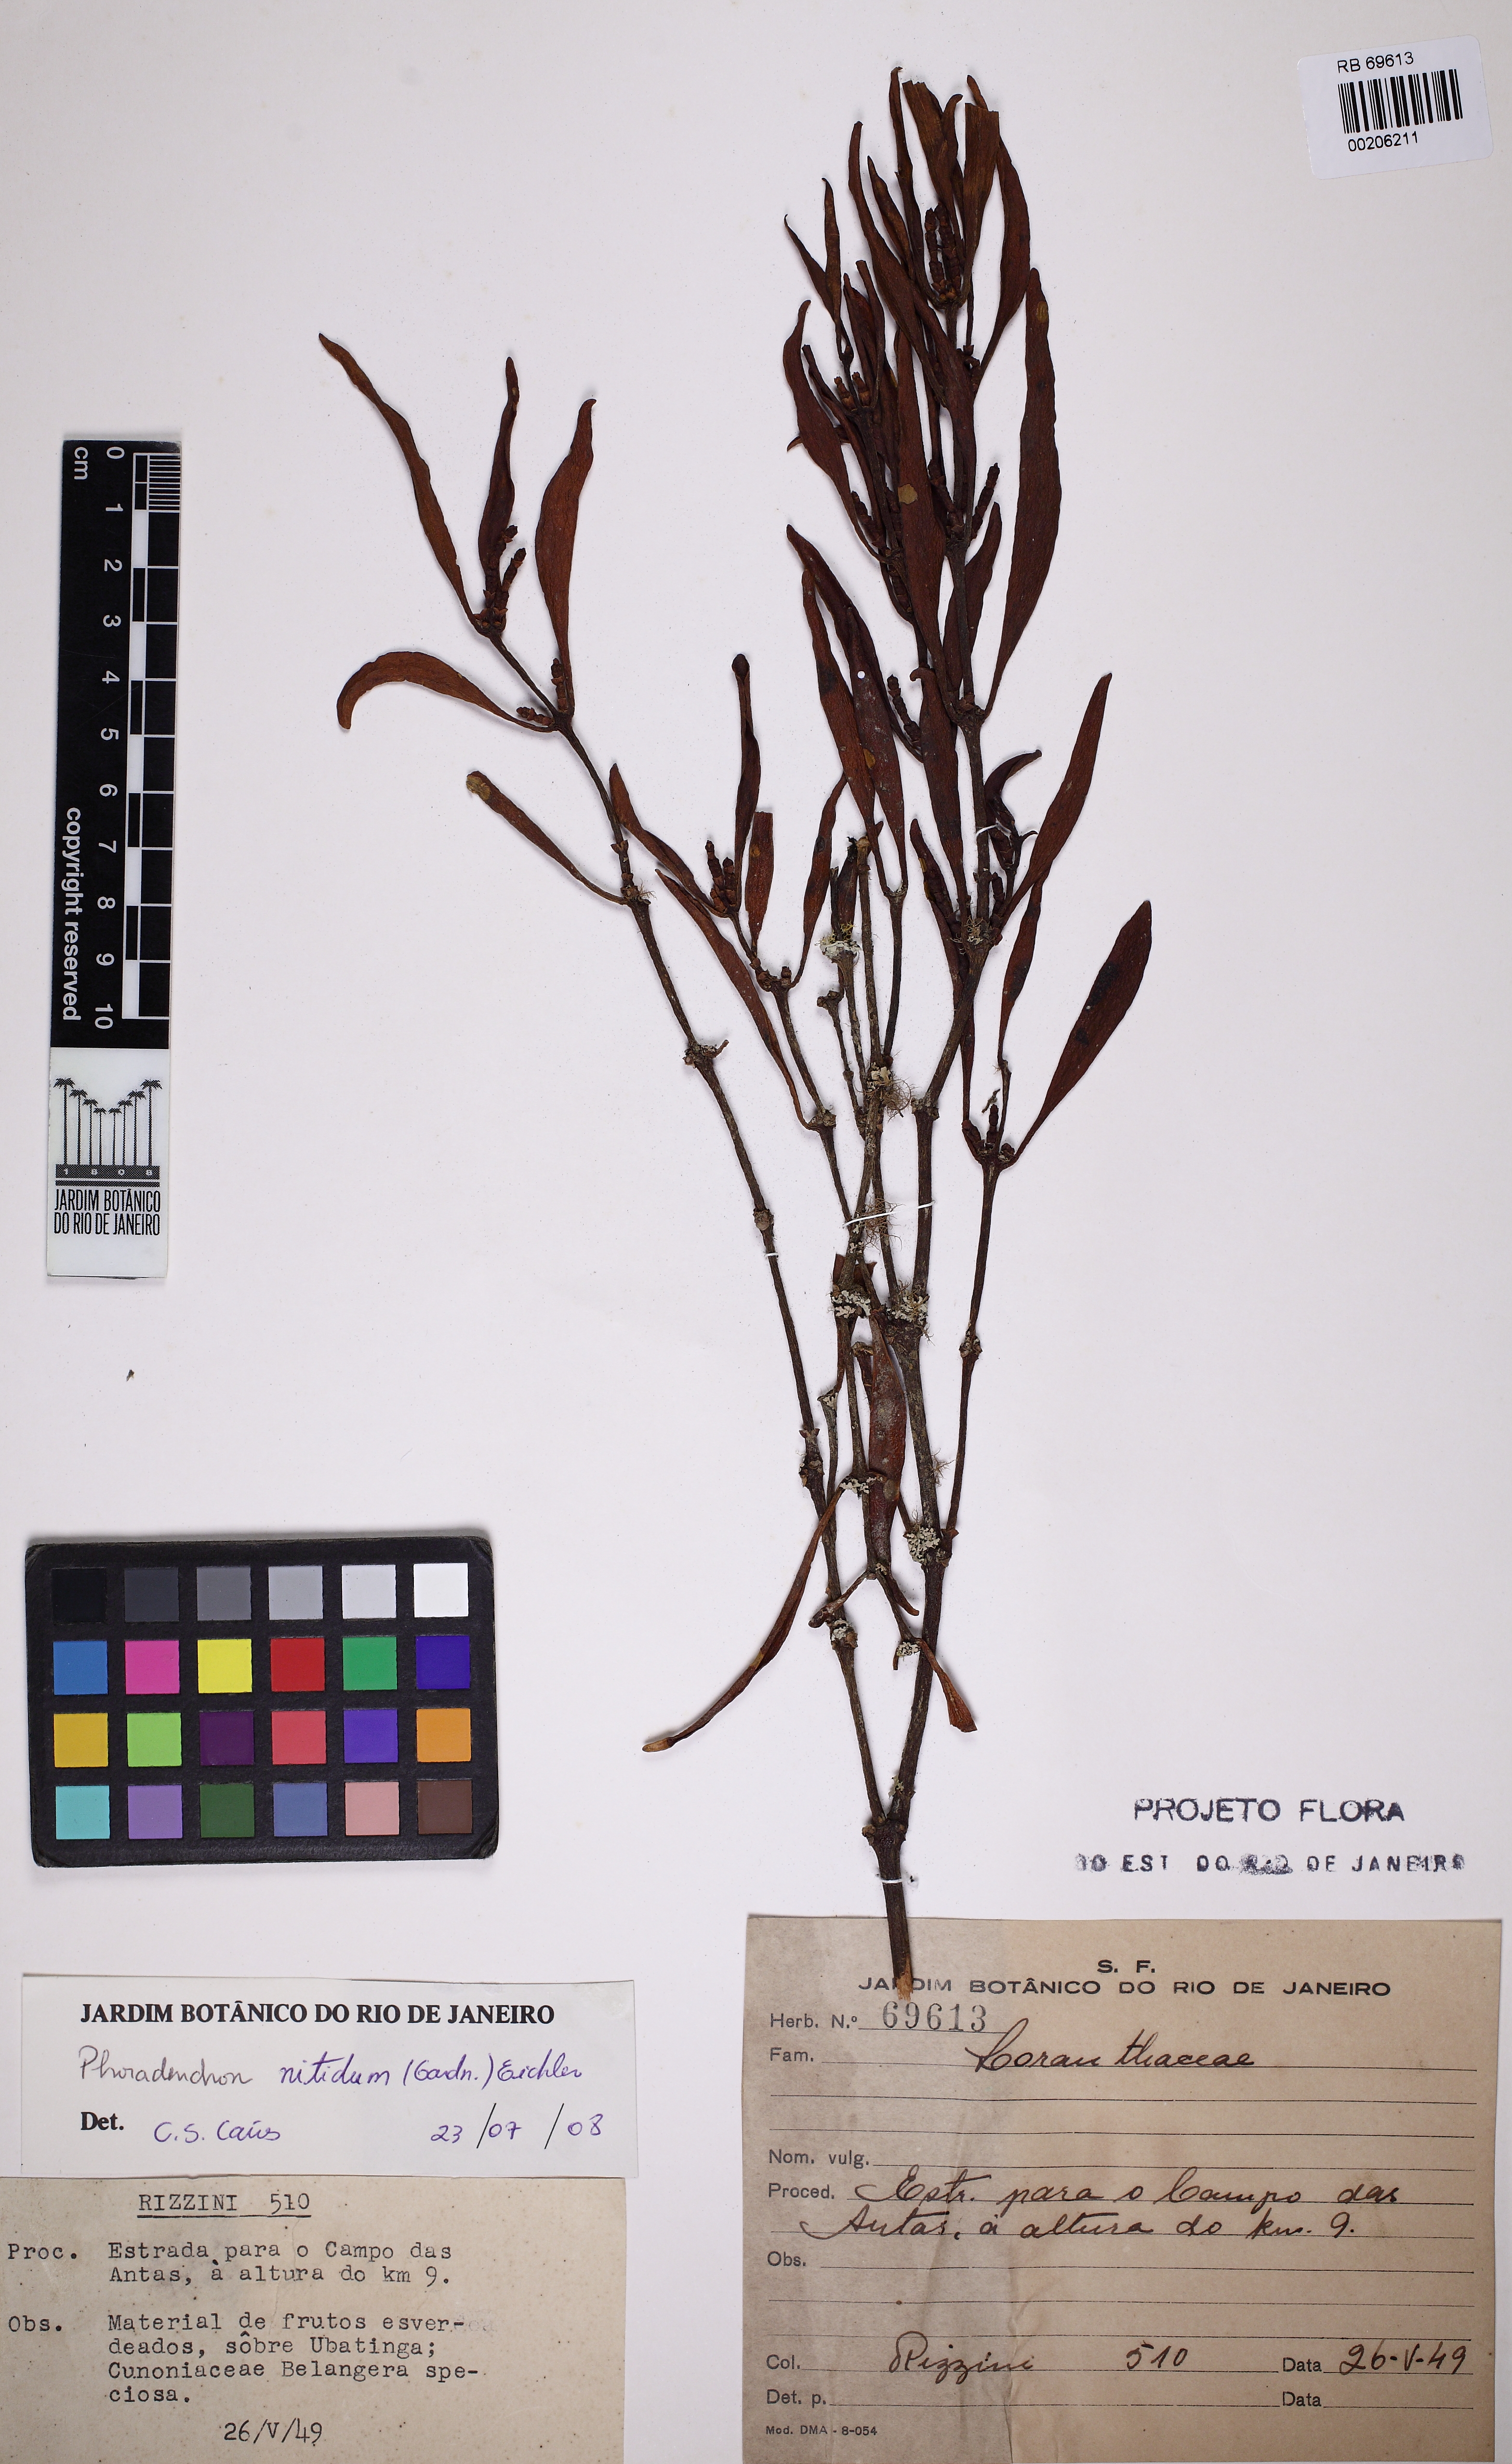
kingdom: Plantae
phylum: Tracheophyta
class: Magnoliopsida
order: Santalales
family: Viscaceae
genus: Phoradendron
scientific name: Phoradendron nitidum
